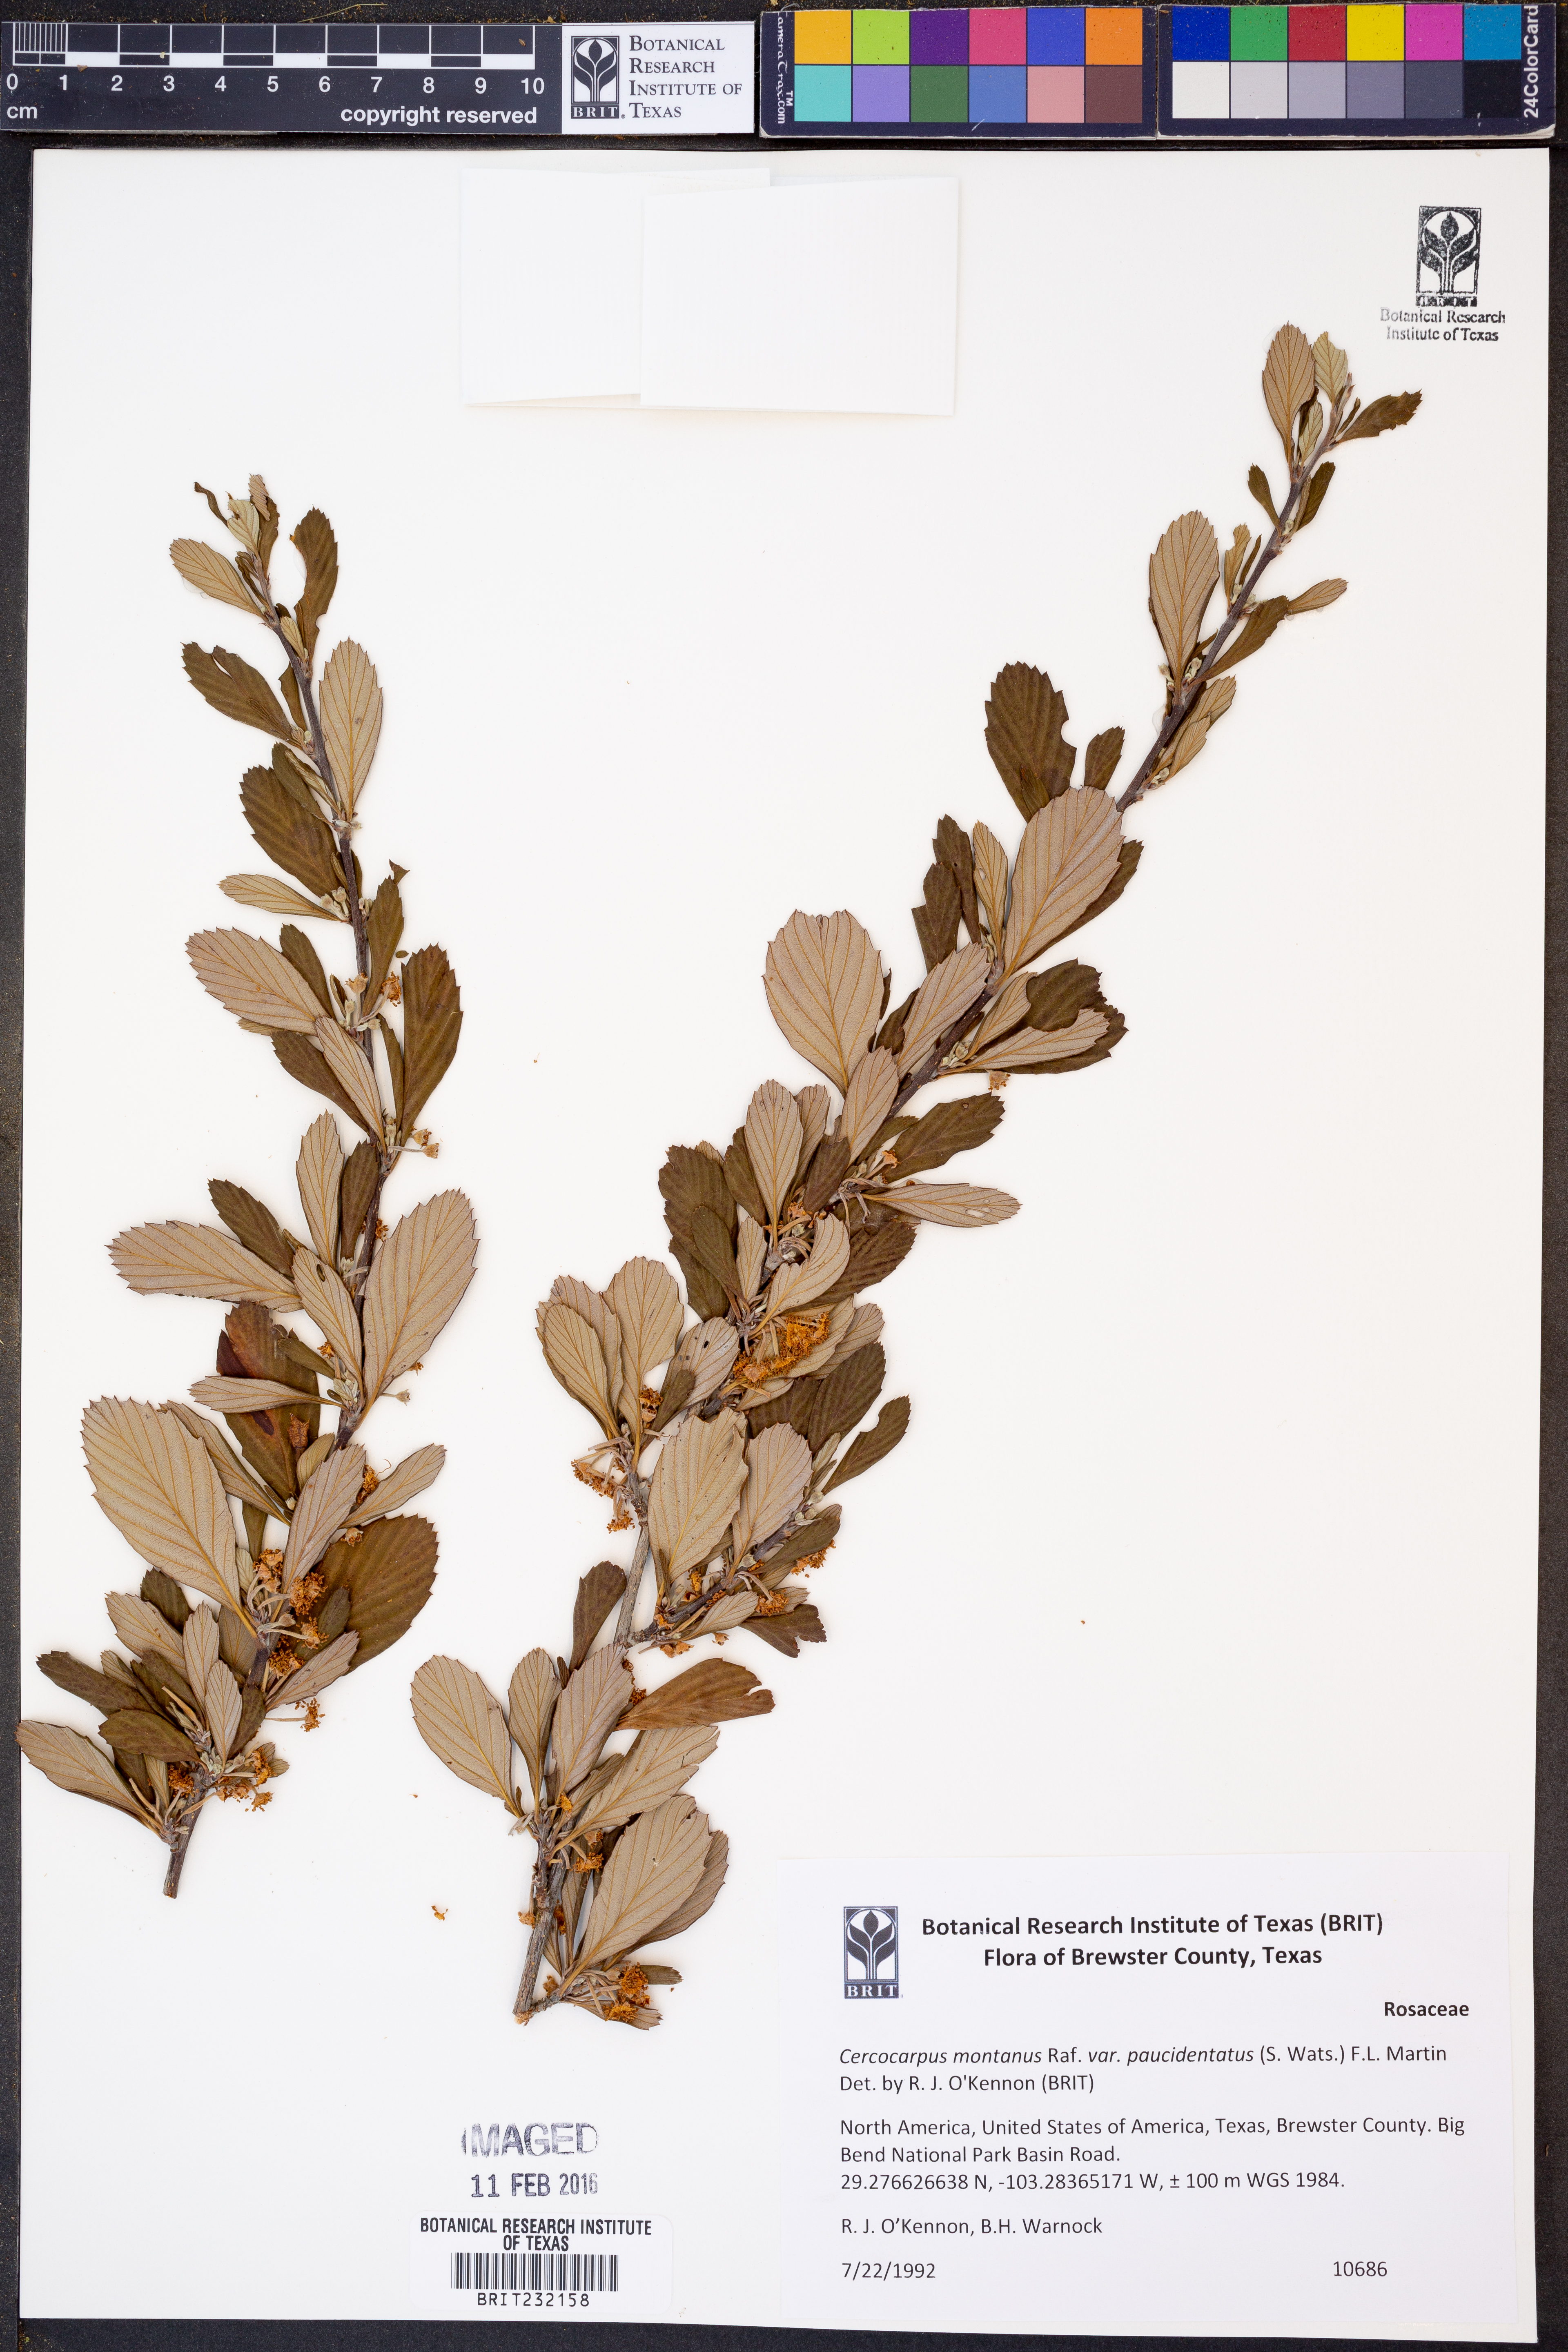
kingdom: Plantae
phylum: Tracheophyta
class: Magnoliopsida
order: Rosales
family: Rosaceae
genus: Cercocarpus
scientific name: Cercocarpus breviflorus
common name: Wright's mountain-mahogany
